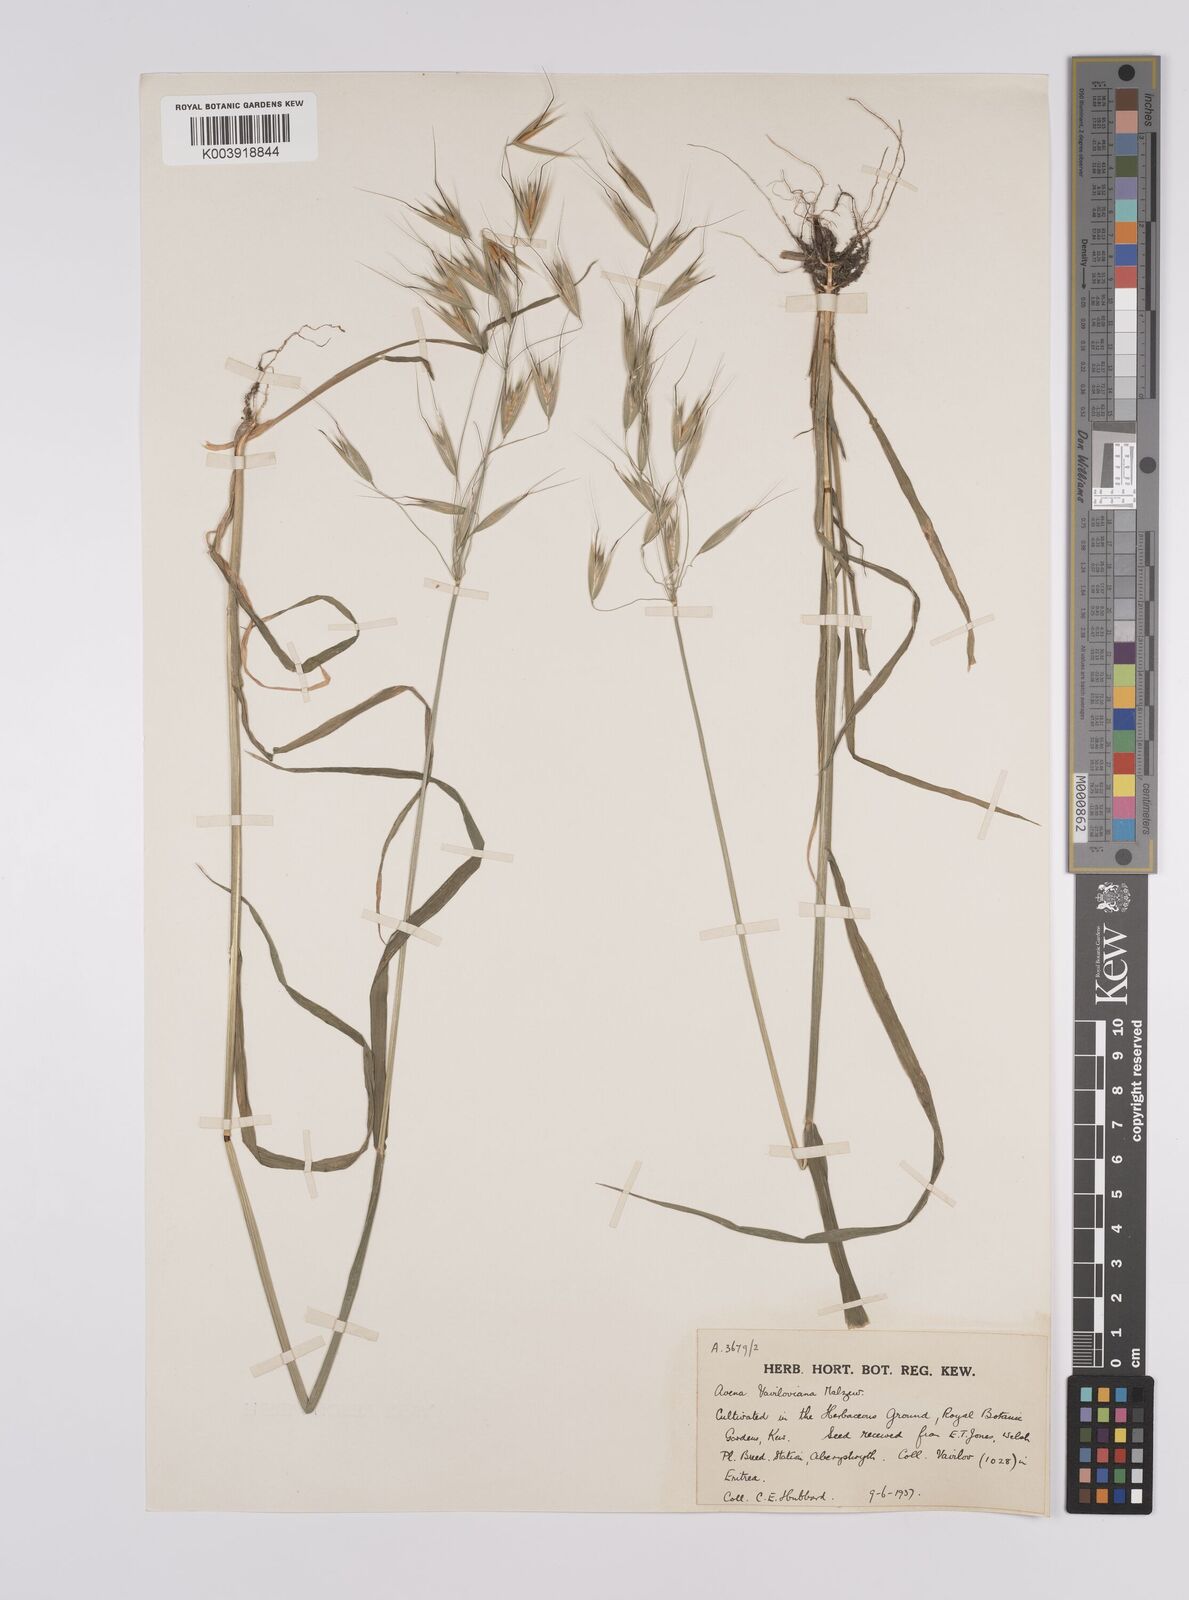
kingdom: Plantae
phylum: Tracheophyta
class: Liliopsida
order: Poales
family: Poaceae
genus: Avena
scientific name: Avena vaviloviana
